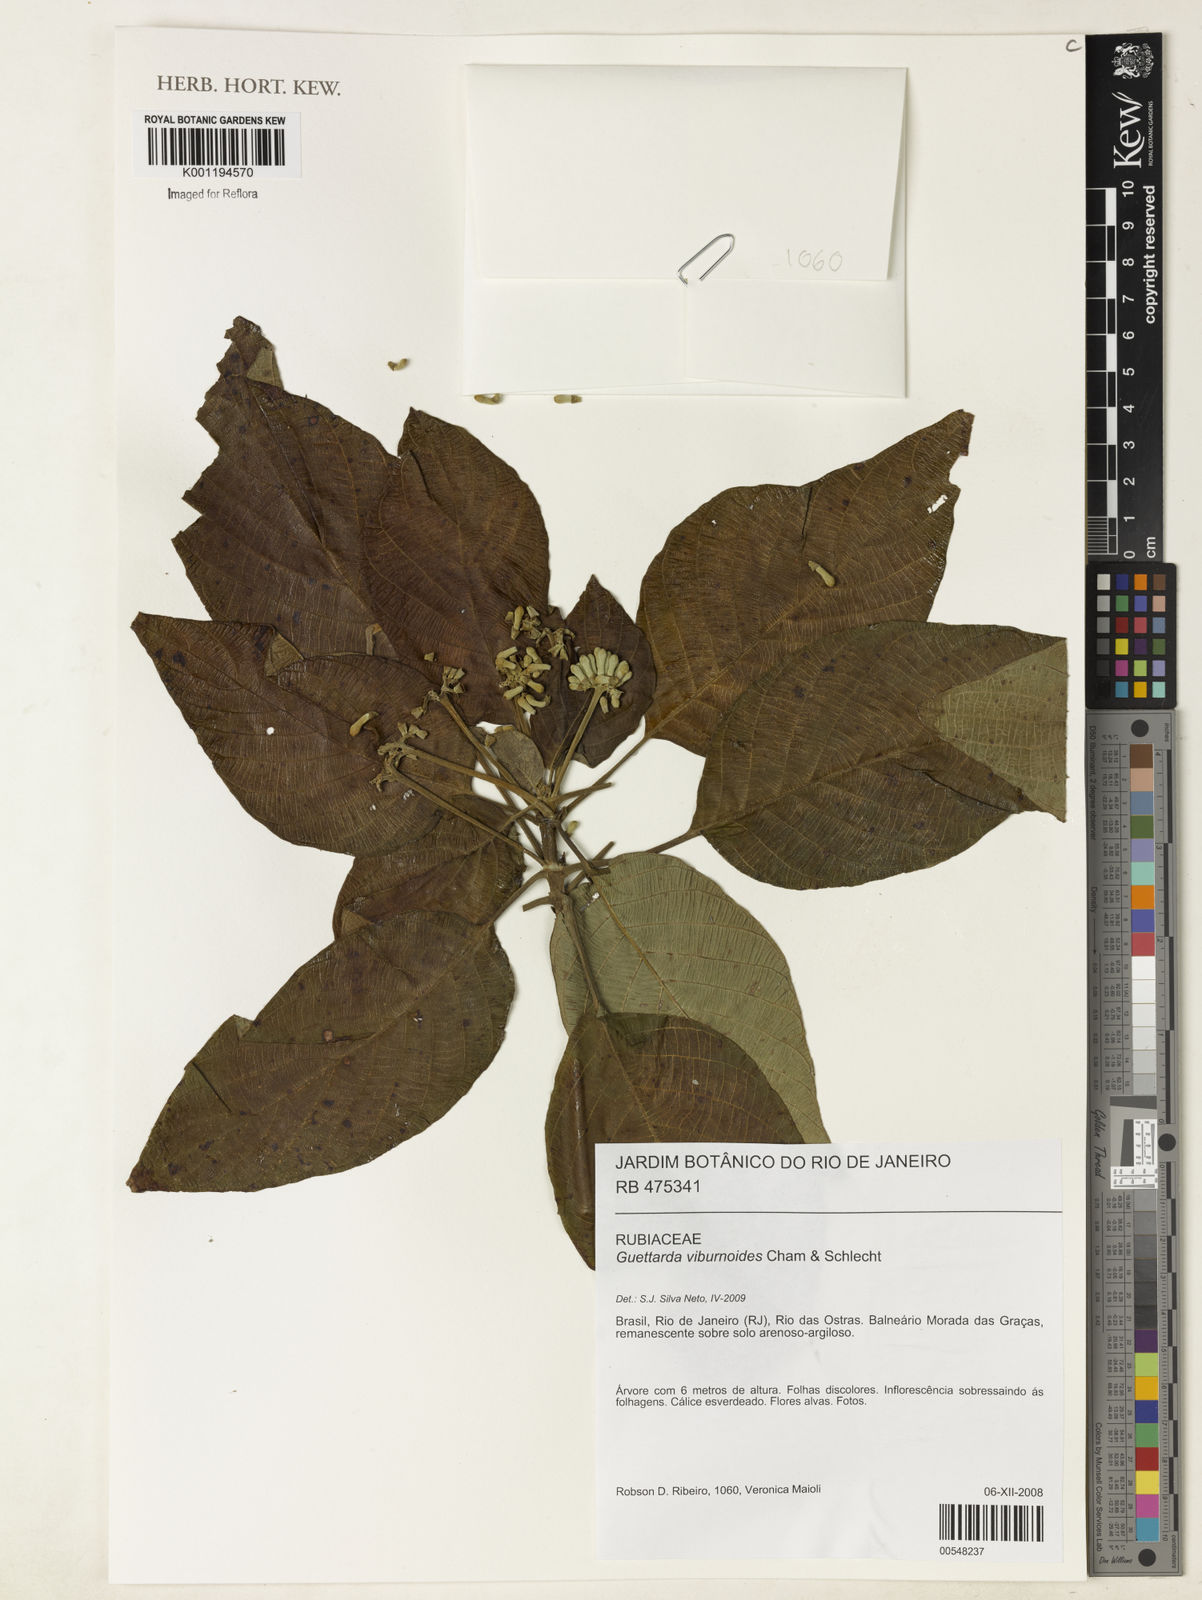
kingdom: Plantae
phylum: Tracheophyta
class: Magnoliopsida
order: Gentianales
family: Rubiaceae
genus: Guettarda
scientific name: Guettarda viburnoides
